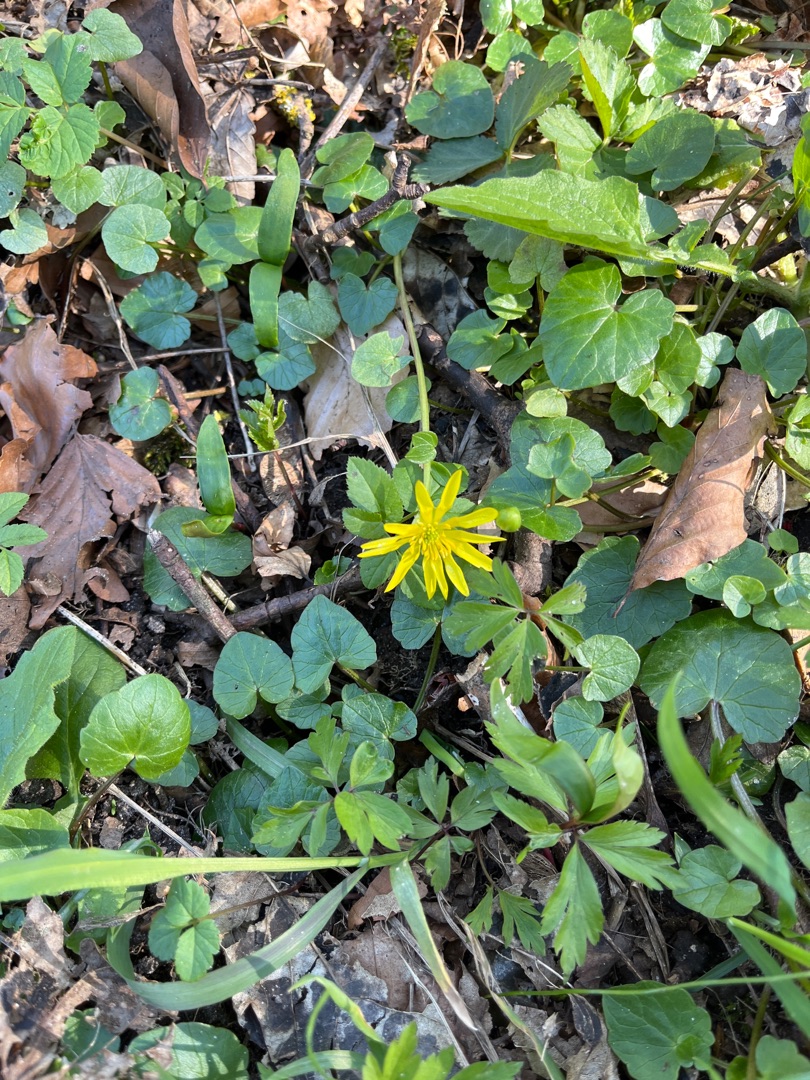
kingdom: Plantae
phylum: Tracheophyta
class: Magnoliopsida
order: Ranunculales
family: Ranunculaceae
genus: Ficaria
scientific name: Ficaria verna
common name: Vorterod
